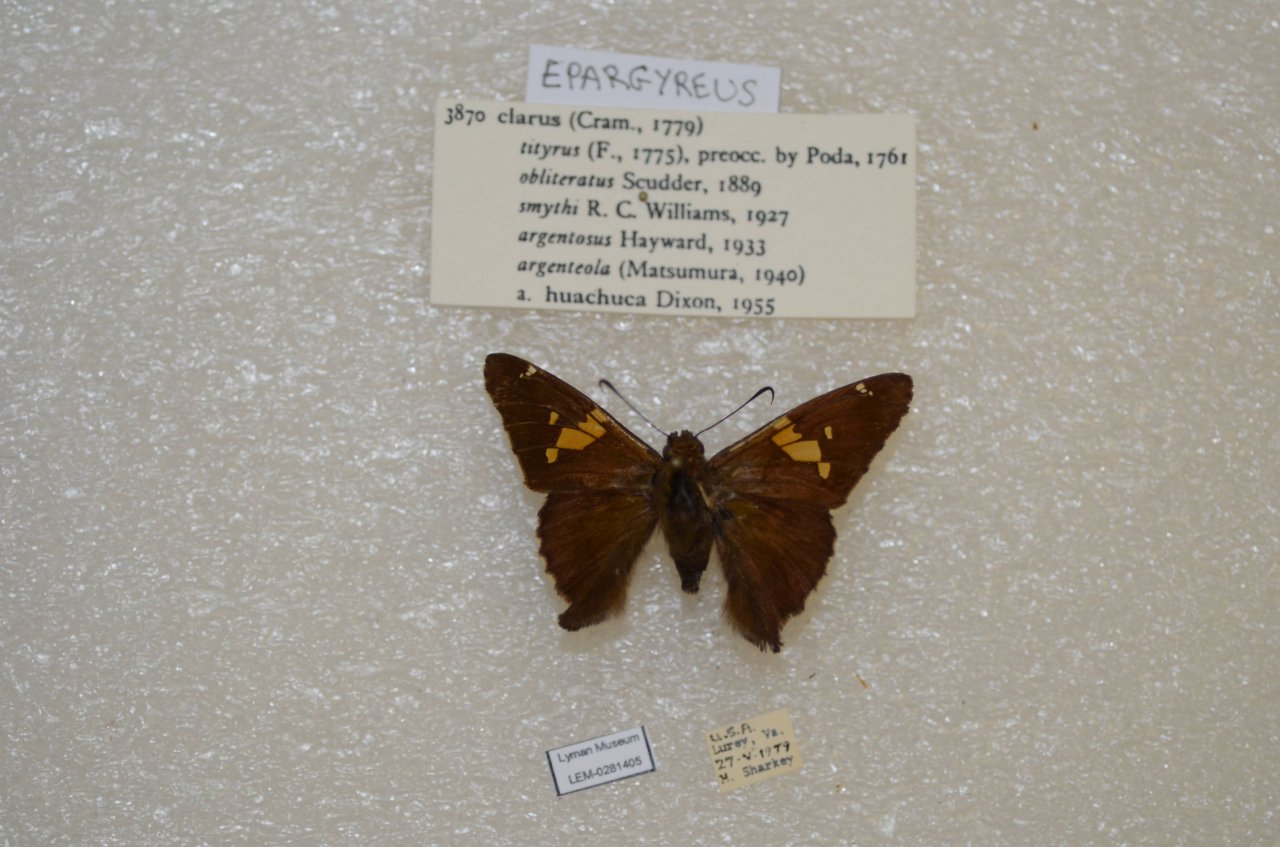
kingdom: Animalia
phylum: Arthropoda
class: Insecta
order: Lepidoptera
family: Hesperiidae
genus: Epargyreus
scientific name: Epargyreus clarus
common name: Silver-spotted Skipper
